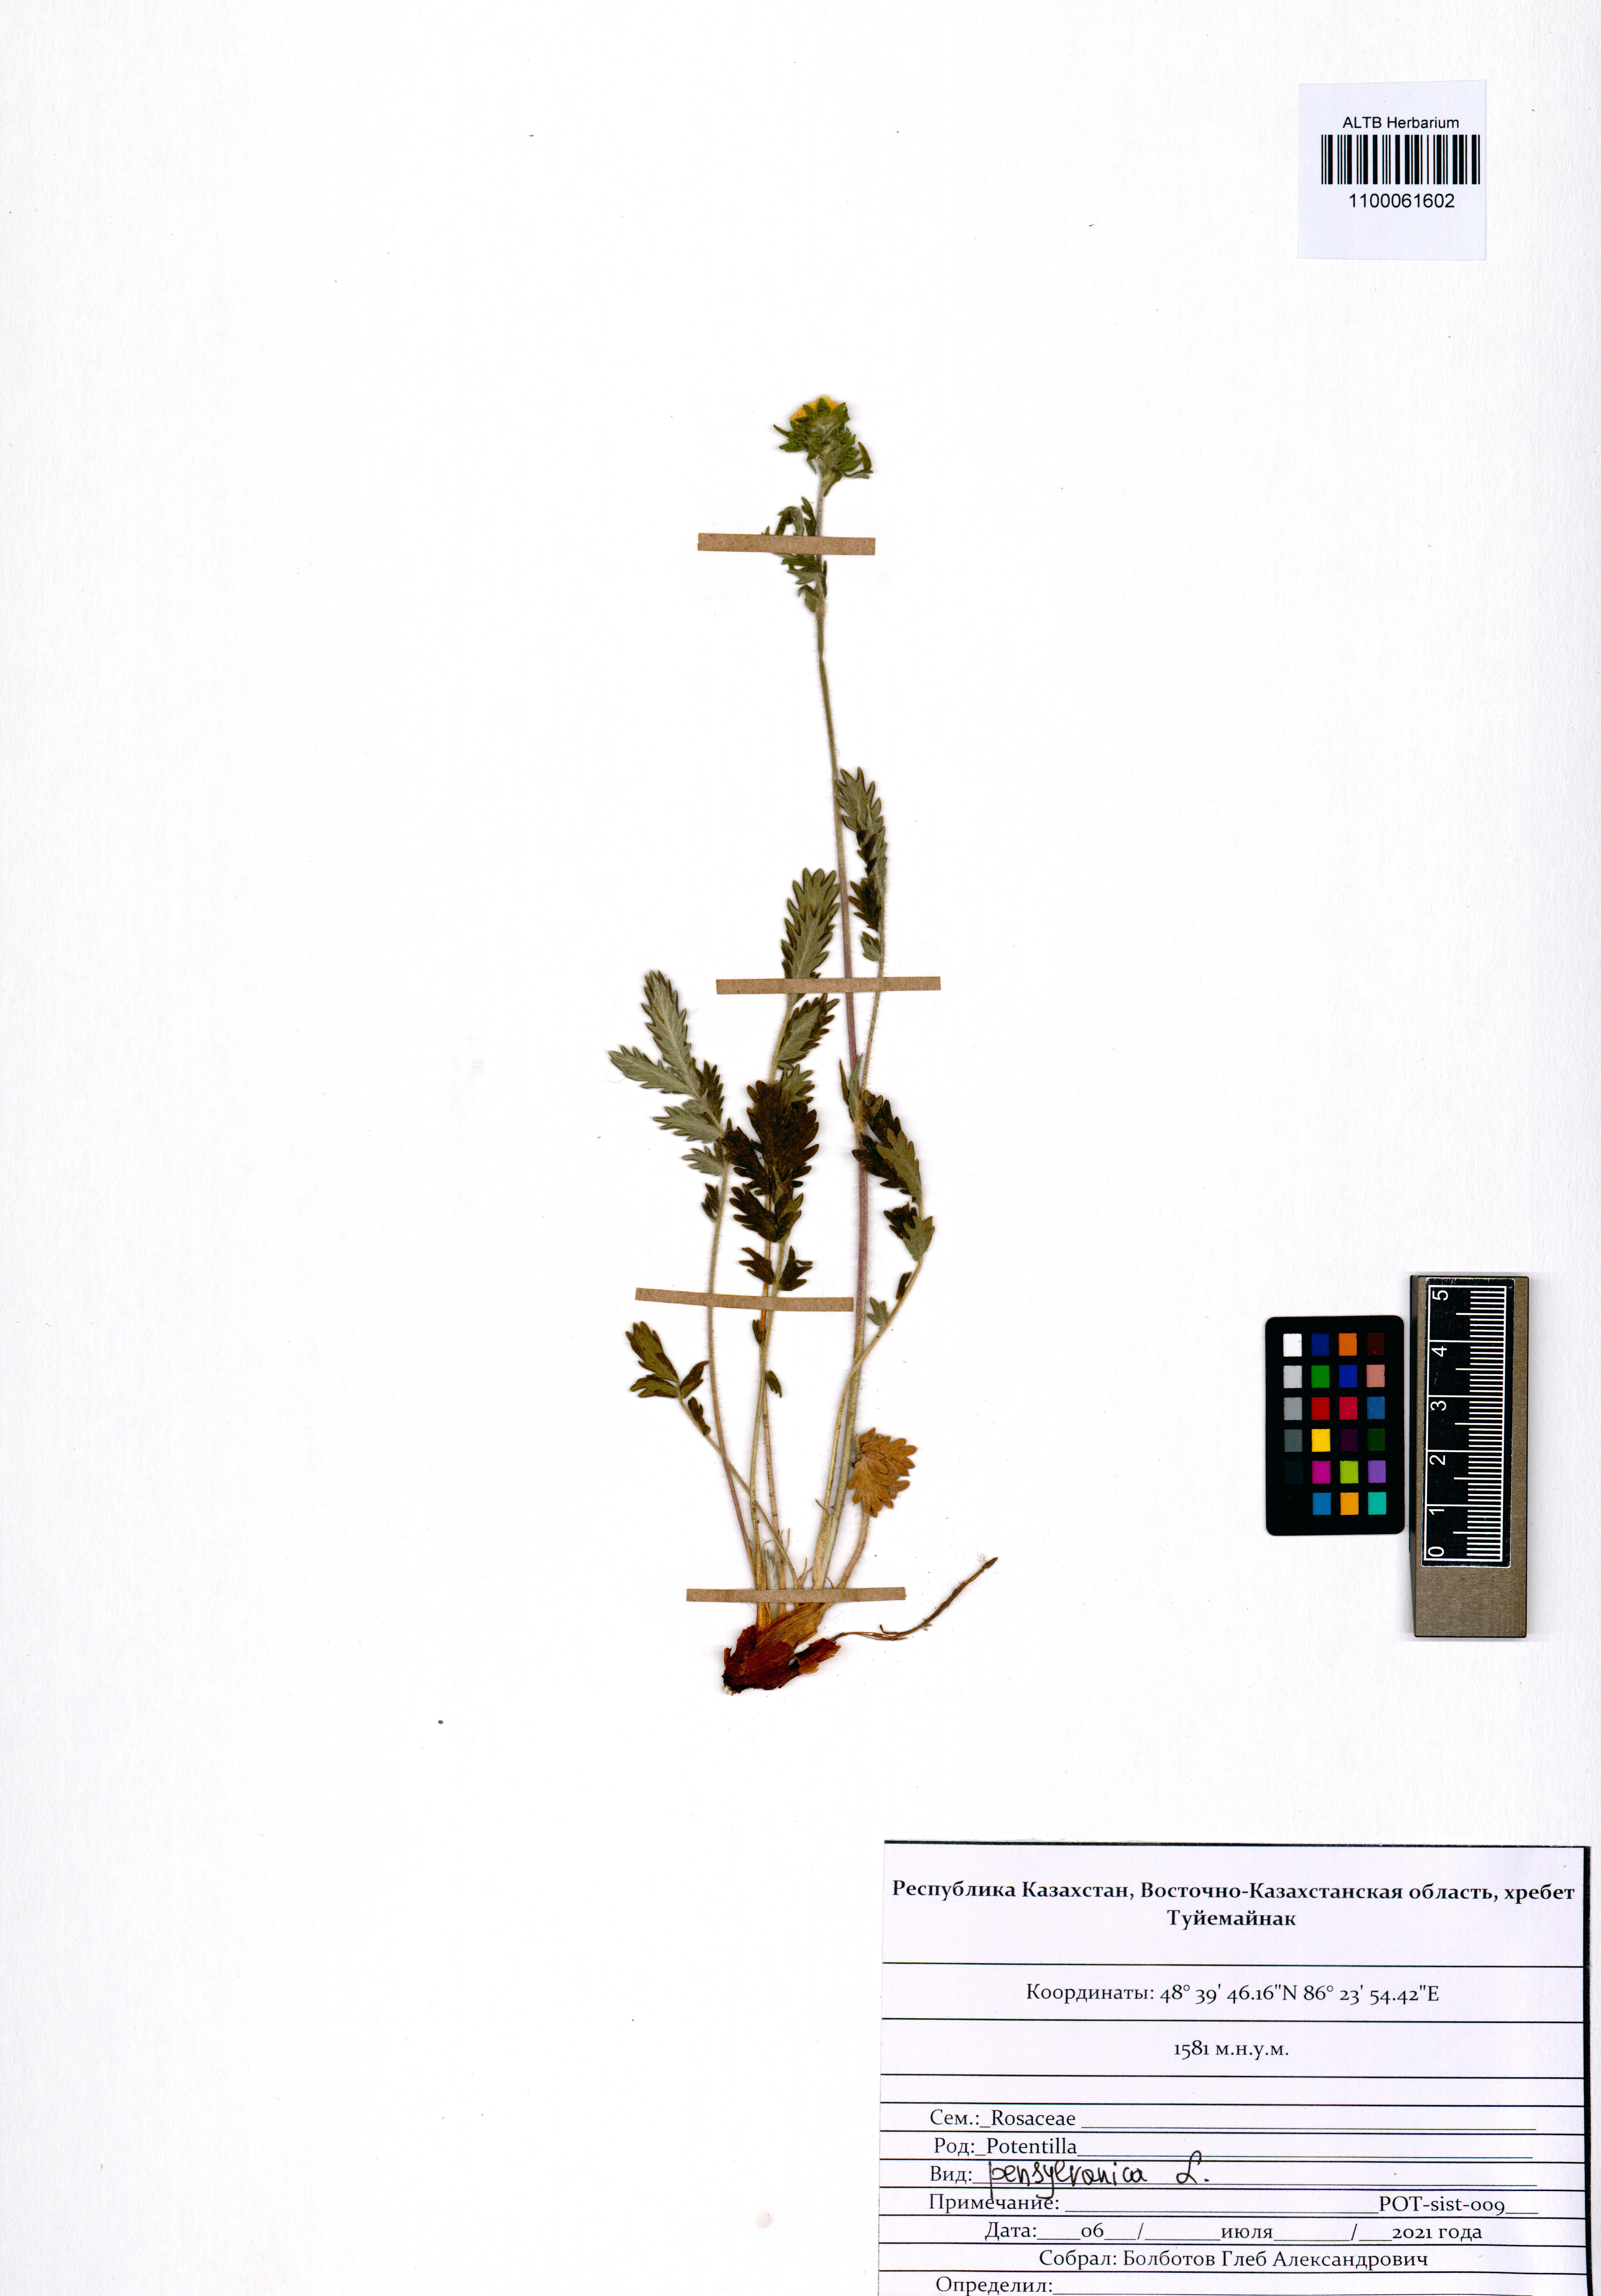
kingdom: Plantae
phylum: Tracheophyta
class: Magnoliopsida
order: Rosales
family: Rosaceae
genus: Potentilla
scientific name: Potentilla pensylvanica
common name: Pennsylvania cinquefoil
